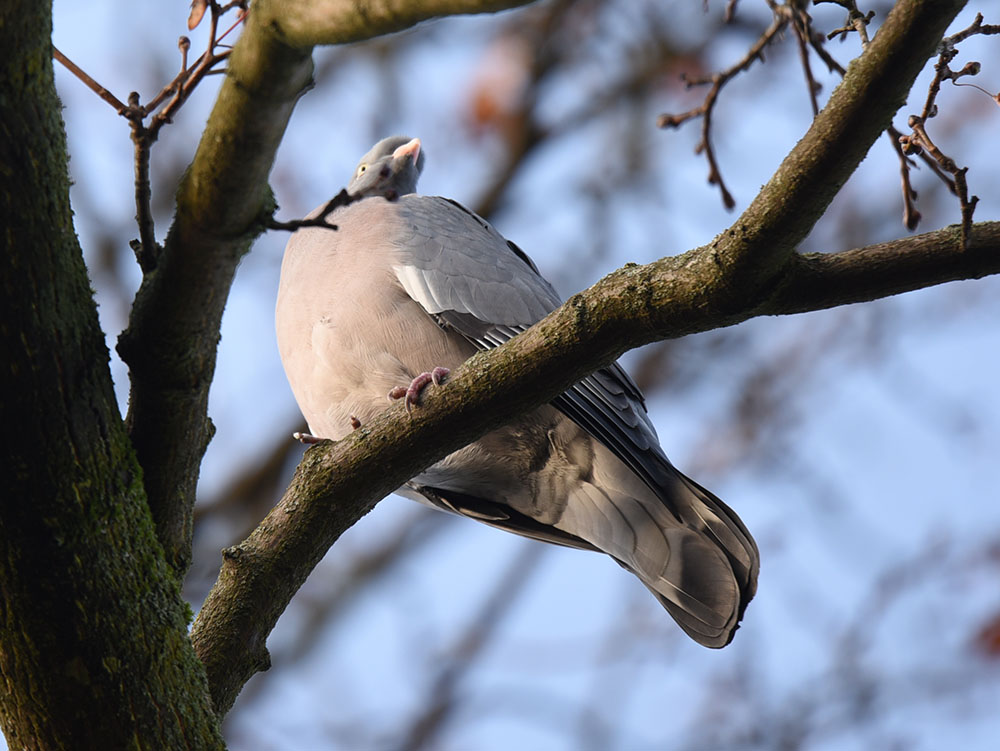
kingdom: Animalia
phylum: Chordata
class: Aves
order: Columbiformes
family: Columbidae
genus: Columba
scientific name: Columba palumbus
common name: Common wood pigeon
